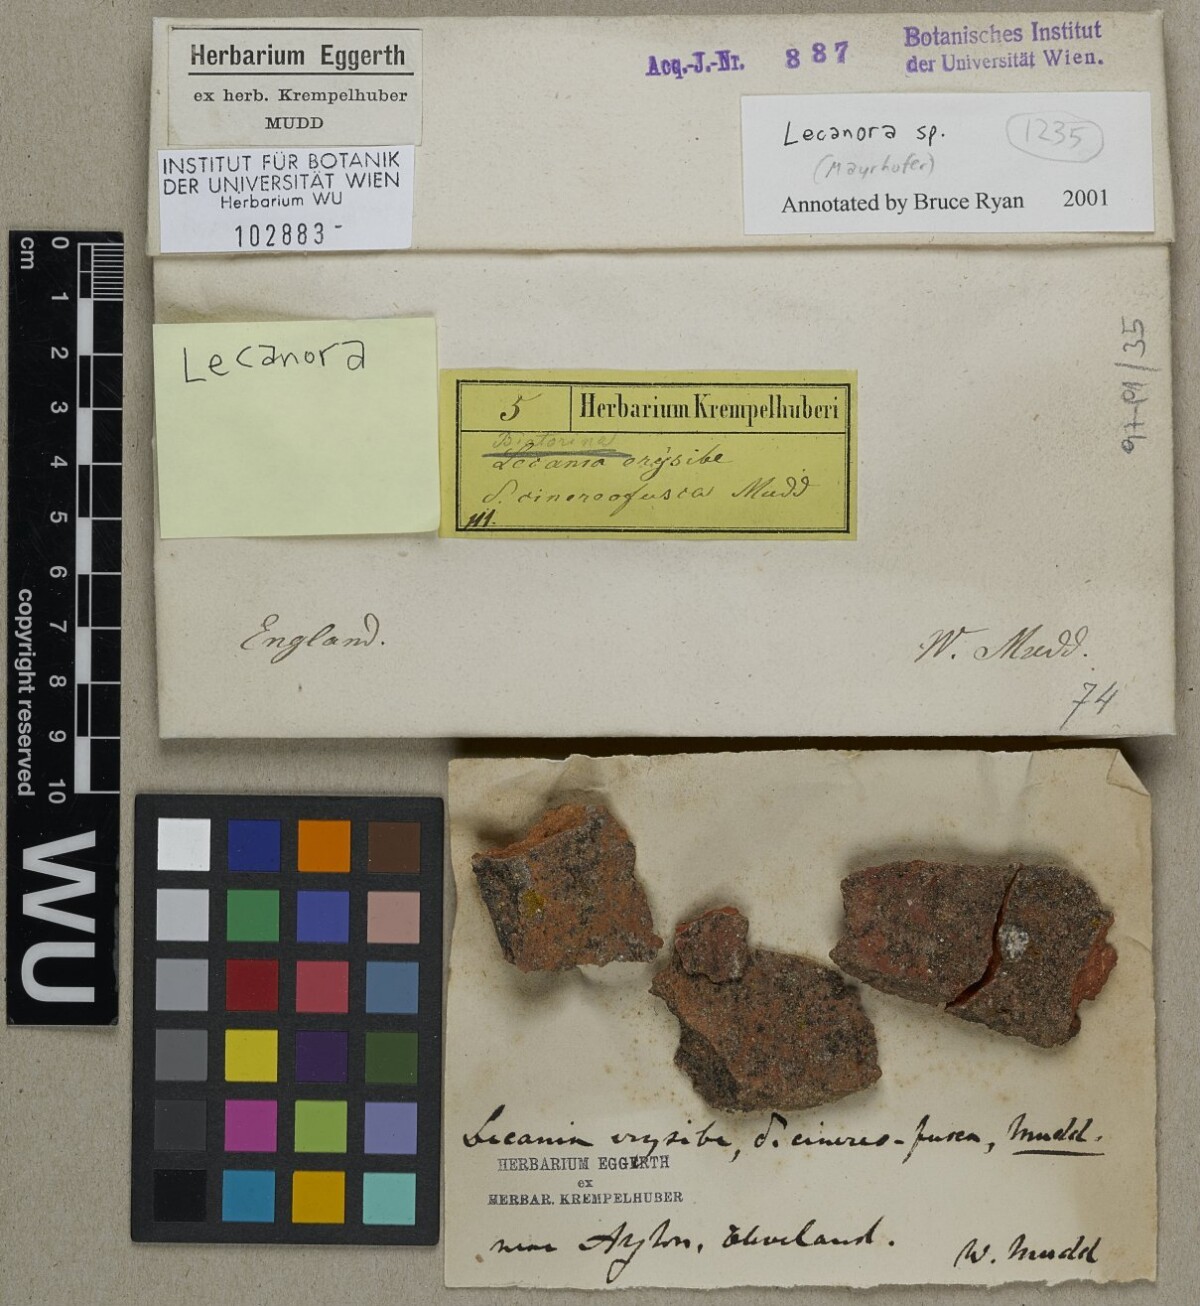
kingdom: Fungi
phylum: Ascomycota
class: Lecanoromycetes
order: Lecanorales
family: Lecanoraceae
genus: Lecanora
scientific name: Lecanora
